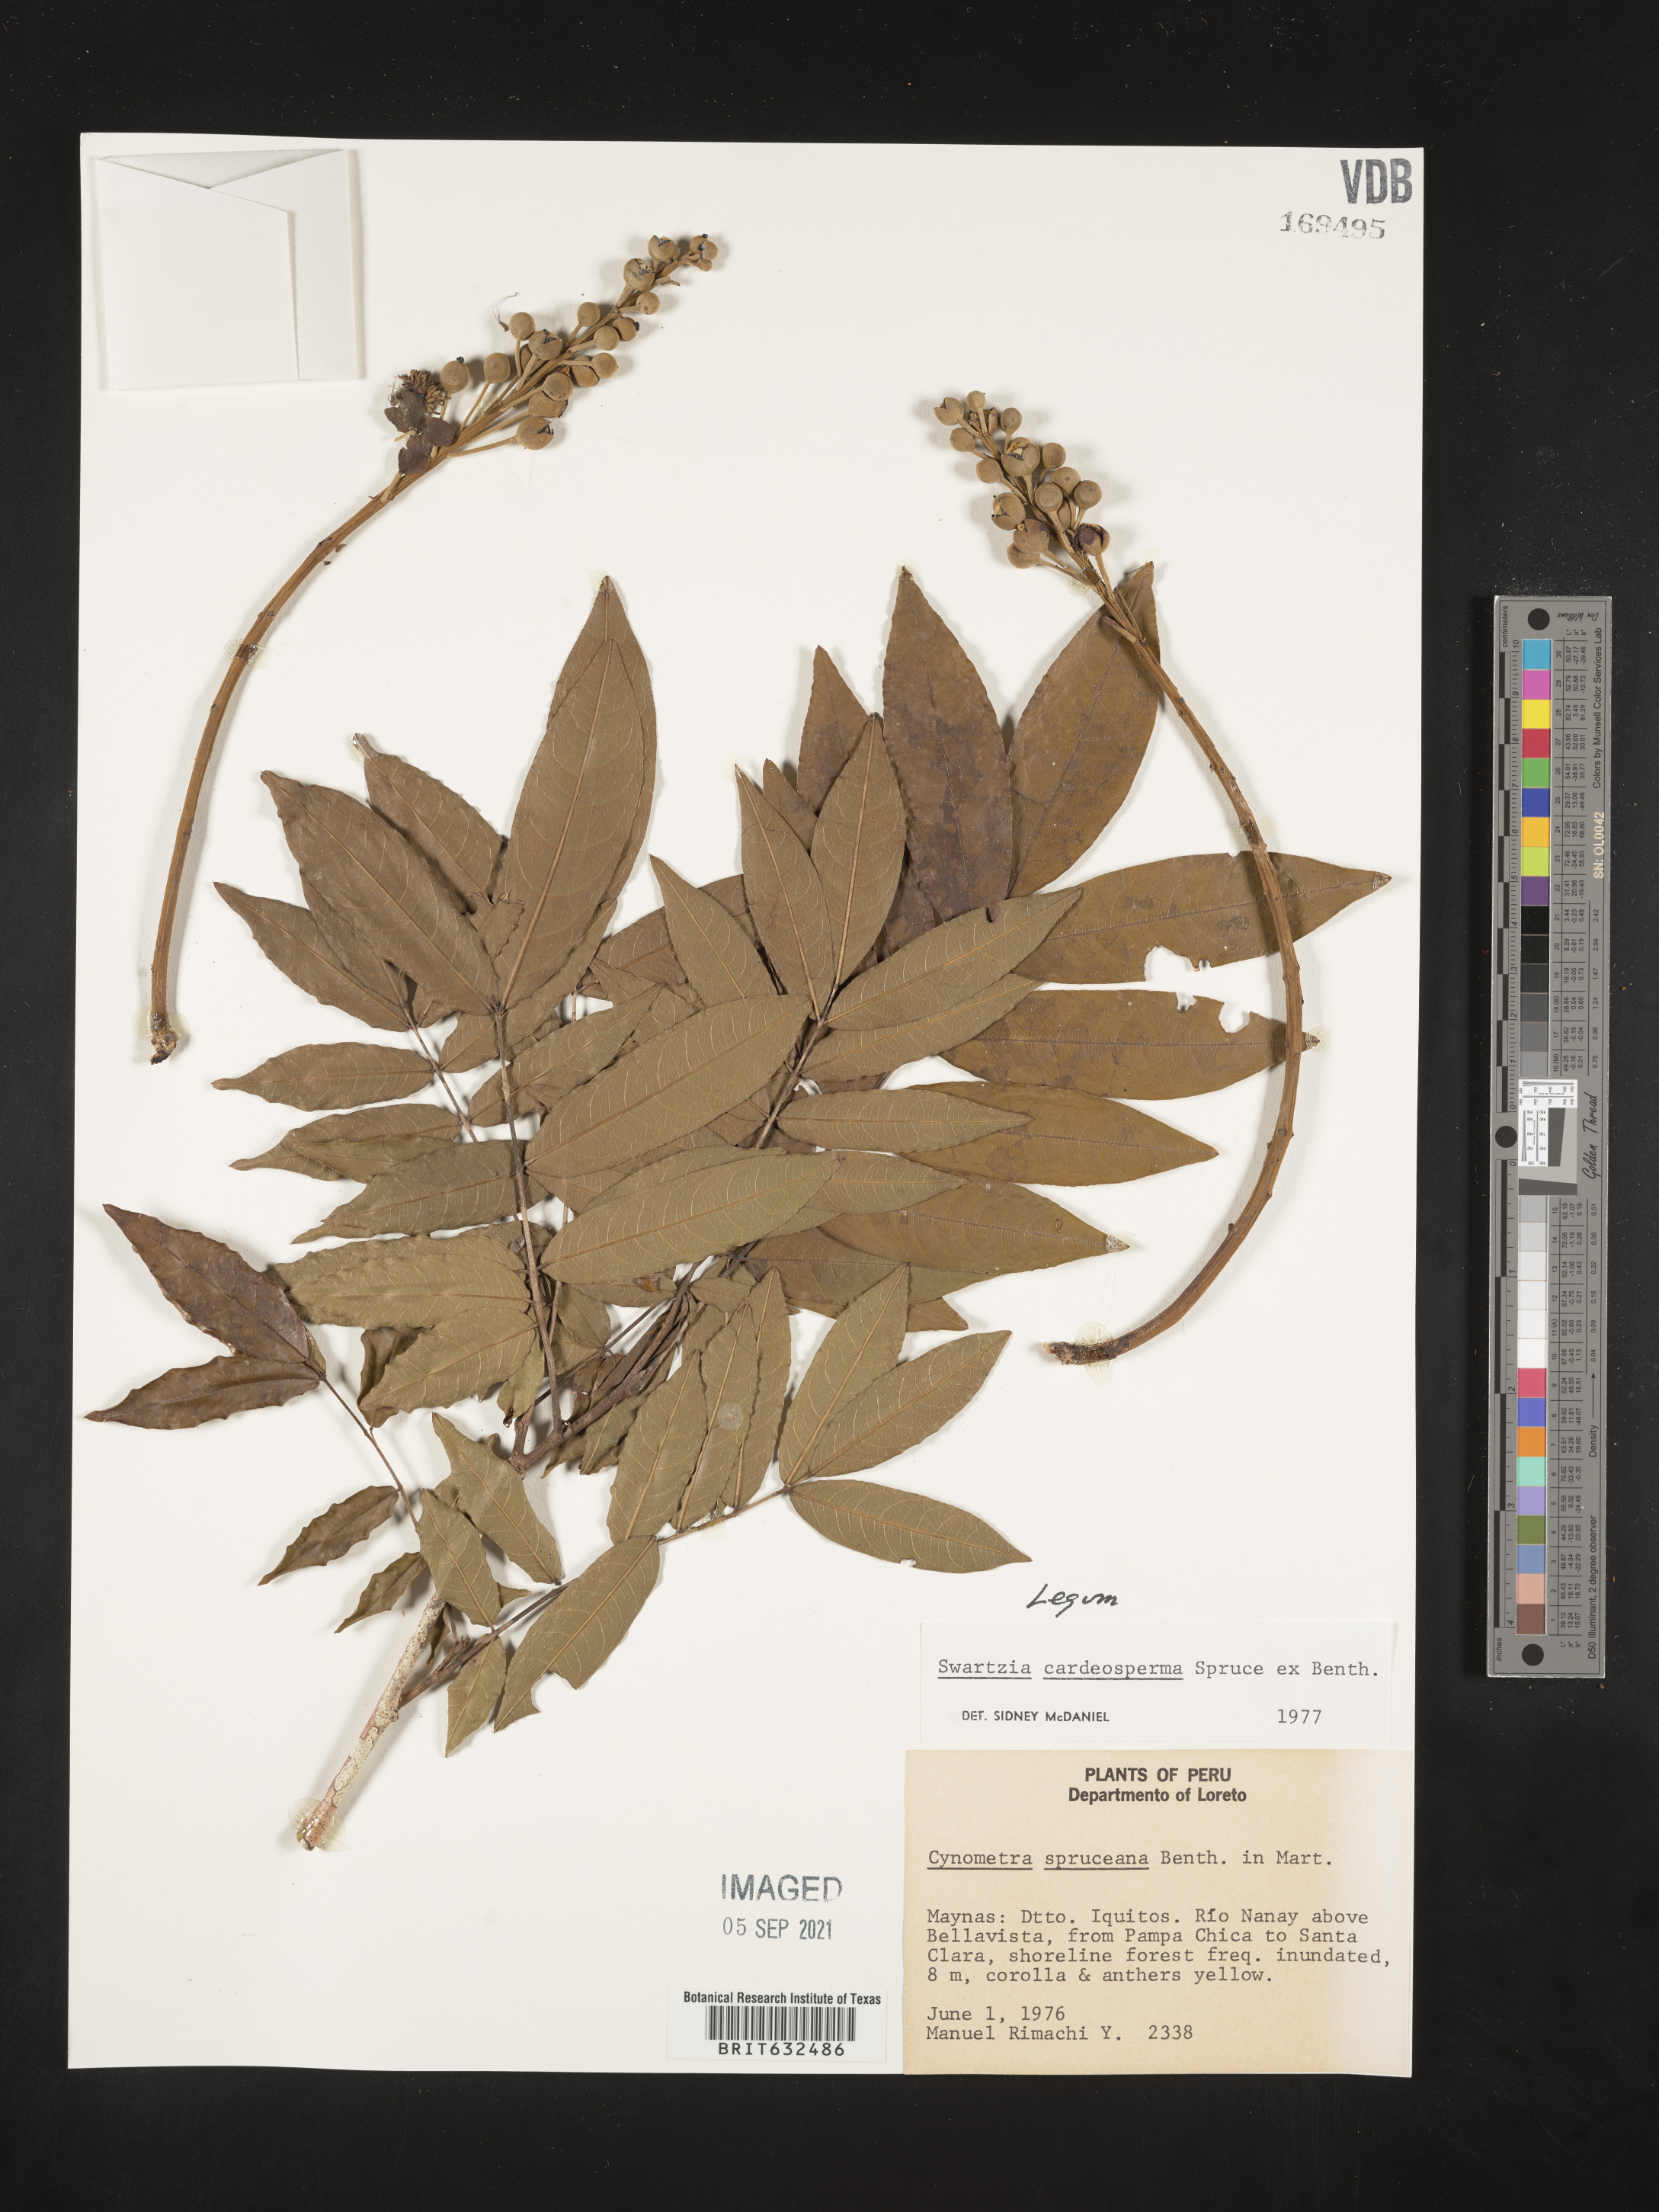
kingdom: Plantae
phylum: Tracheophyta
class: Magnoliopsida
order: Fabales
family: Fabaceae
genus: Swartzia
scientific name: Swartzia
